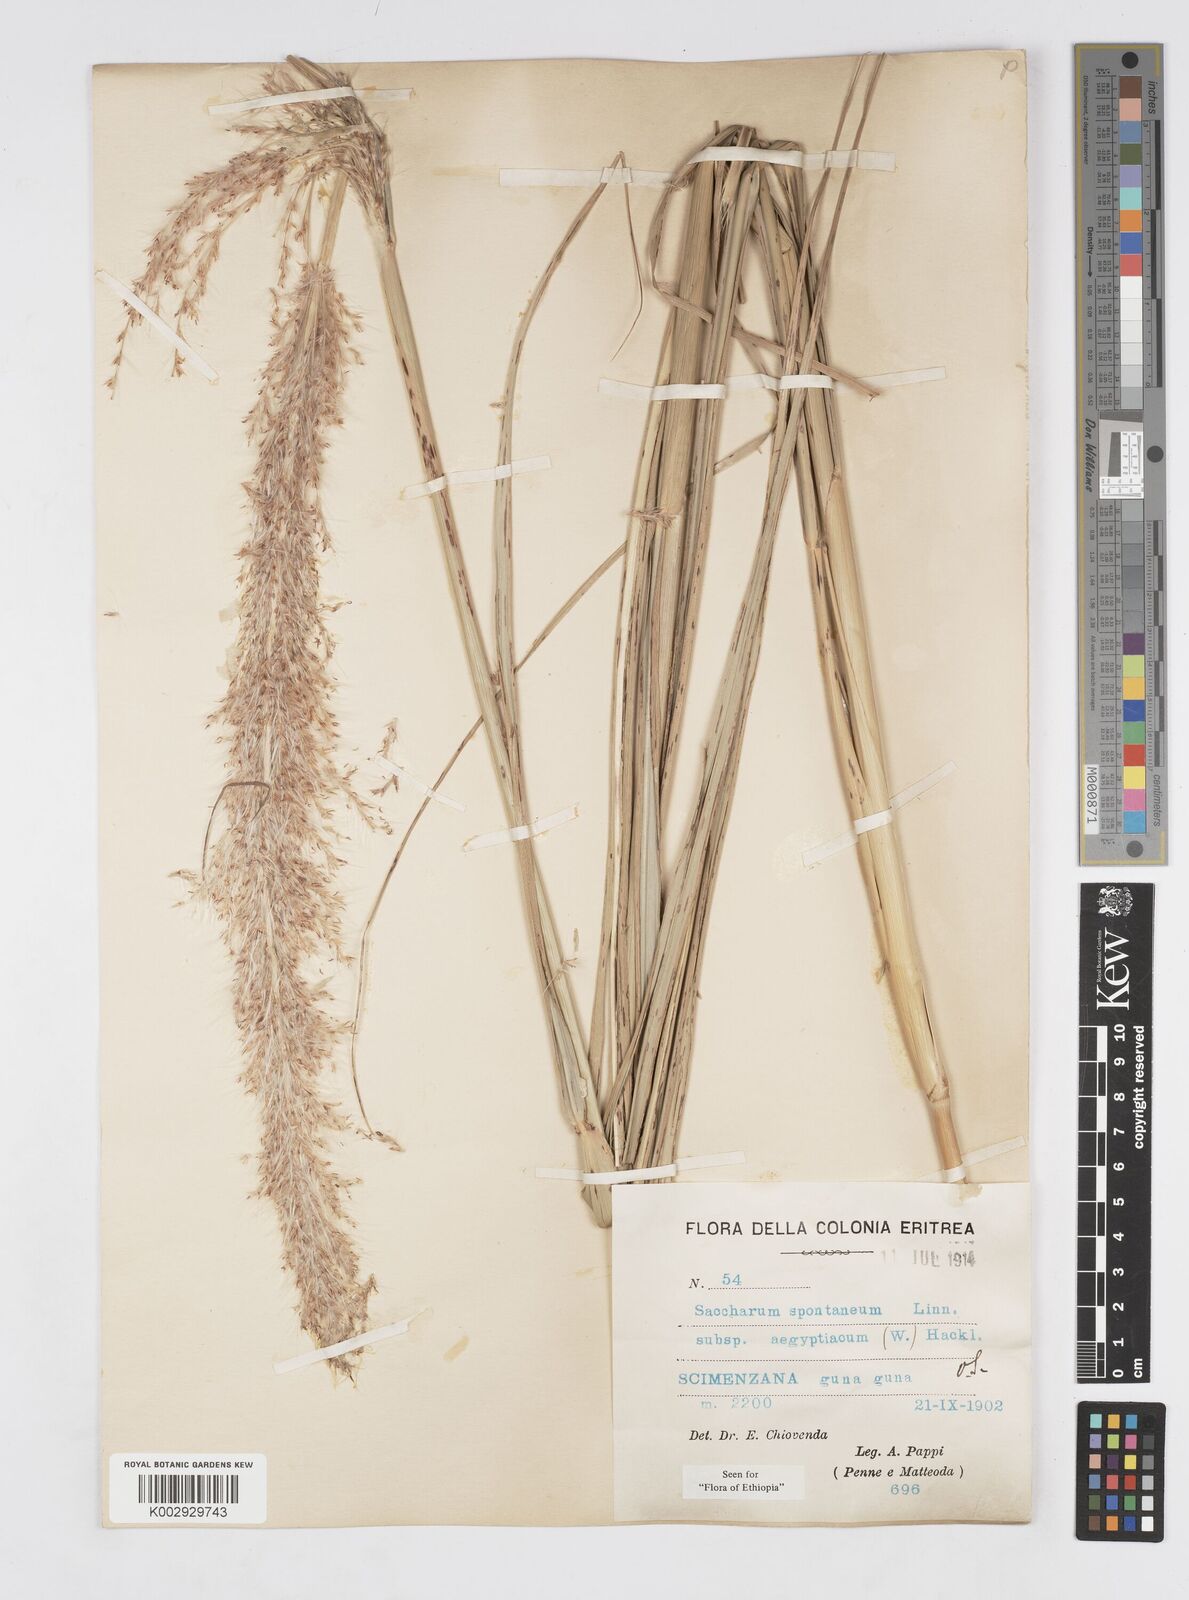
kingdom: Plantae
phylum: Tracheophyta
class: Liliopsida
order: Poales
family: Poaceae
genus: Saccharum
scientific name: Saccharum spontaneum
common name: Wild sugarcane
